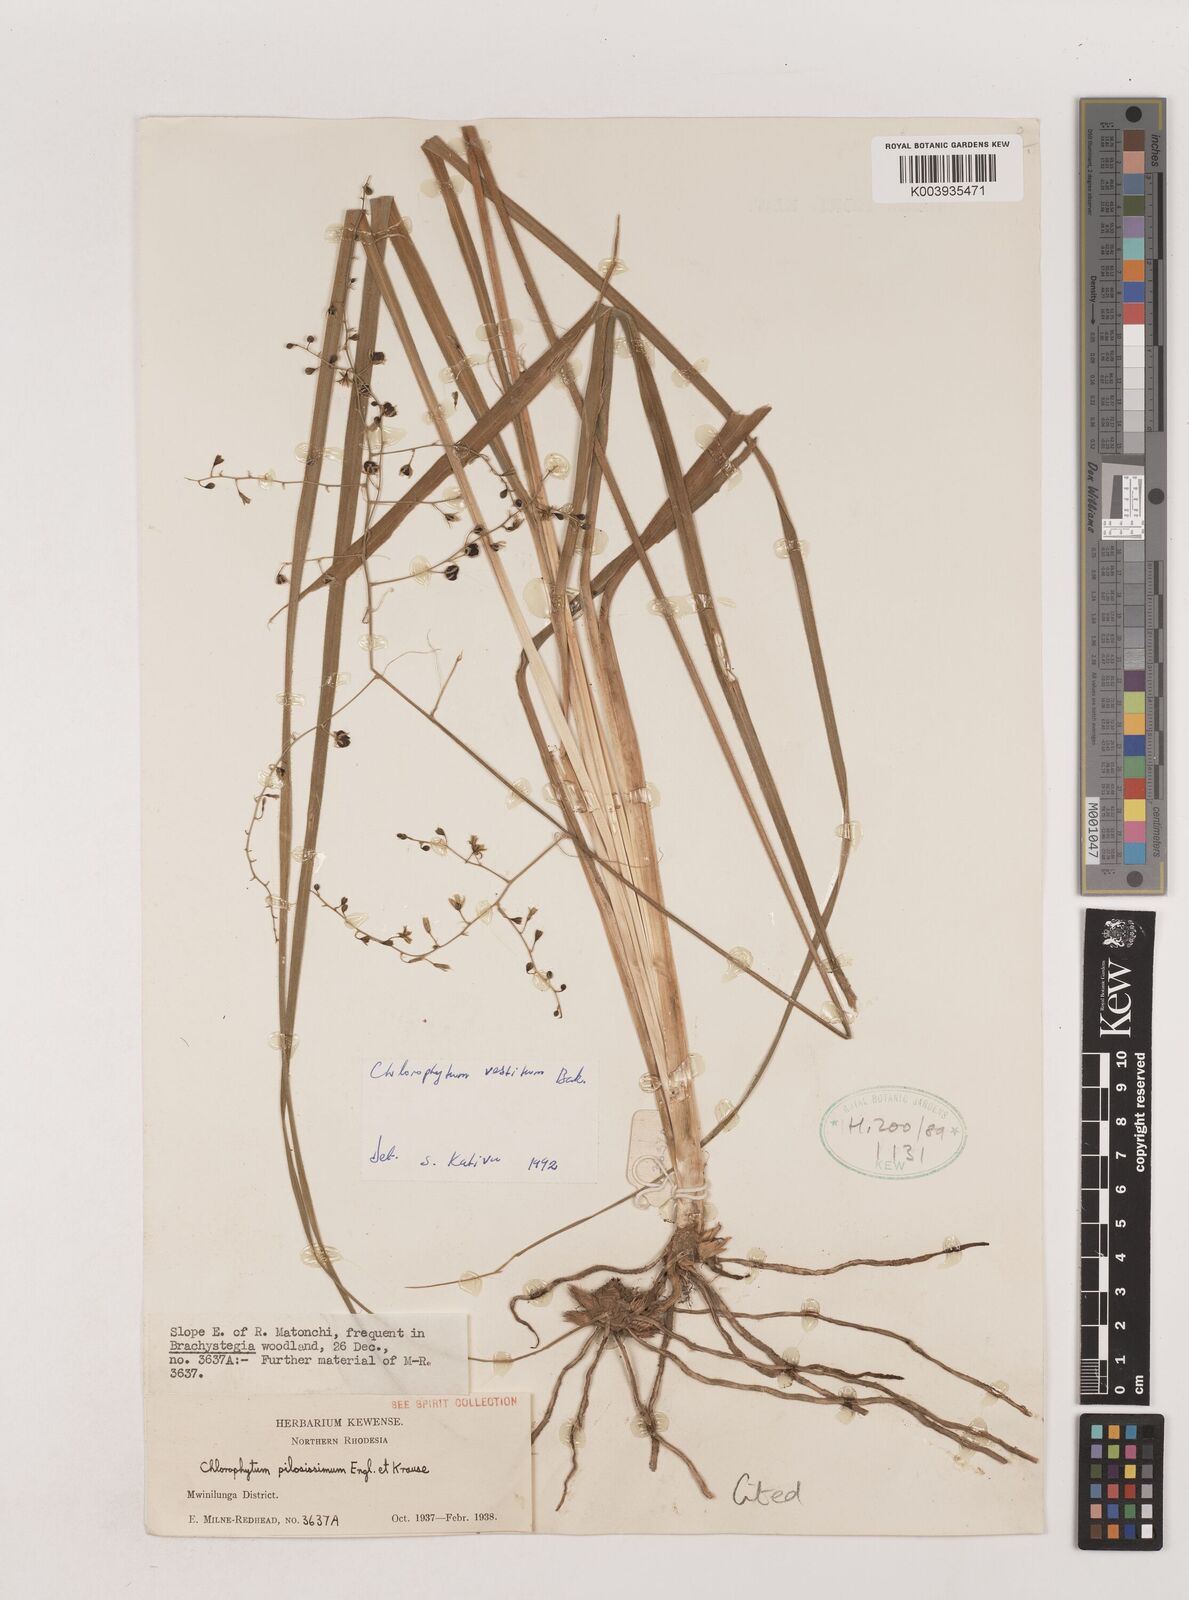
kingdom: Plantae
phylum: Tracheophyta
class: Liliopsida
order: Asparagales
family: Asparagaceae
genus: Chlorophytum
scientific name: Chlorophytum vestitum
